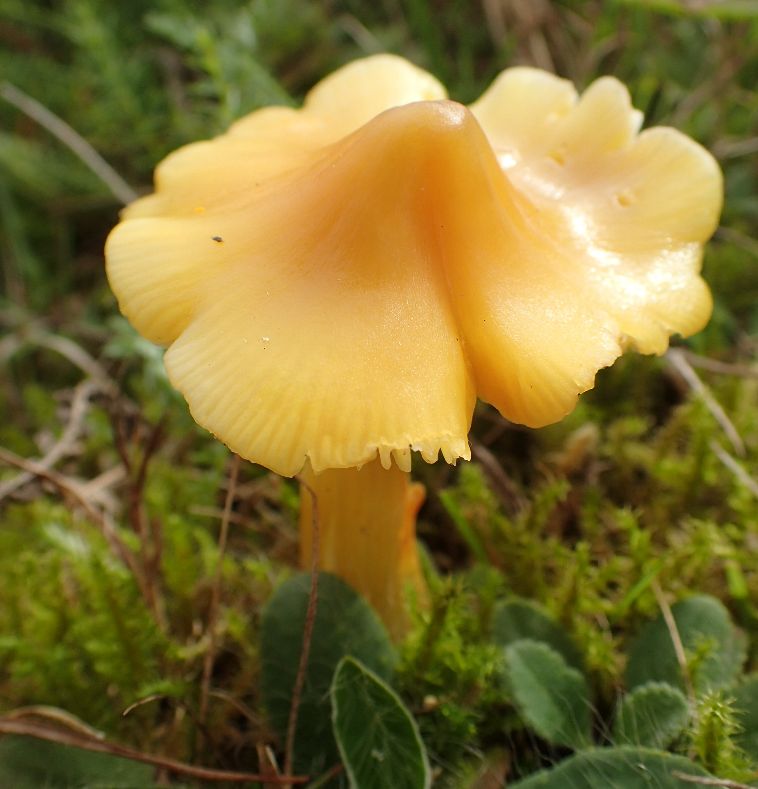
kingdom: Fungi
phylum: Basidiomycota
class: Agaricomycetes
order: Agaricales
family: Hygrophoraceae
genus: Hygrocybe
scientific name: Hygrocybe acutoconica
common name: spidspuklet vokshat
